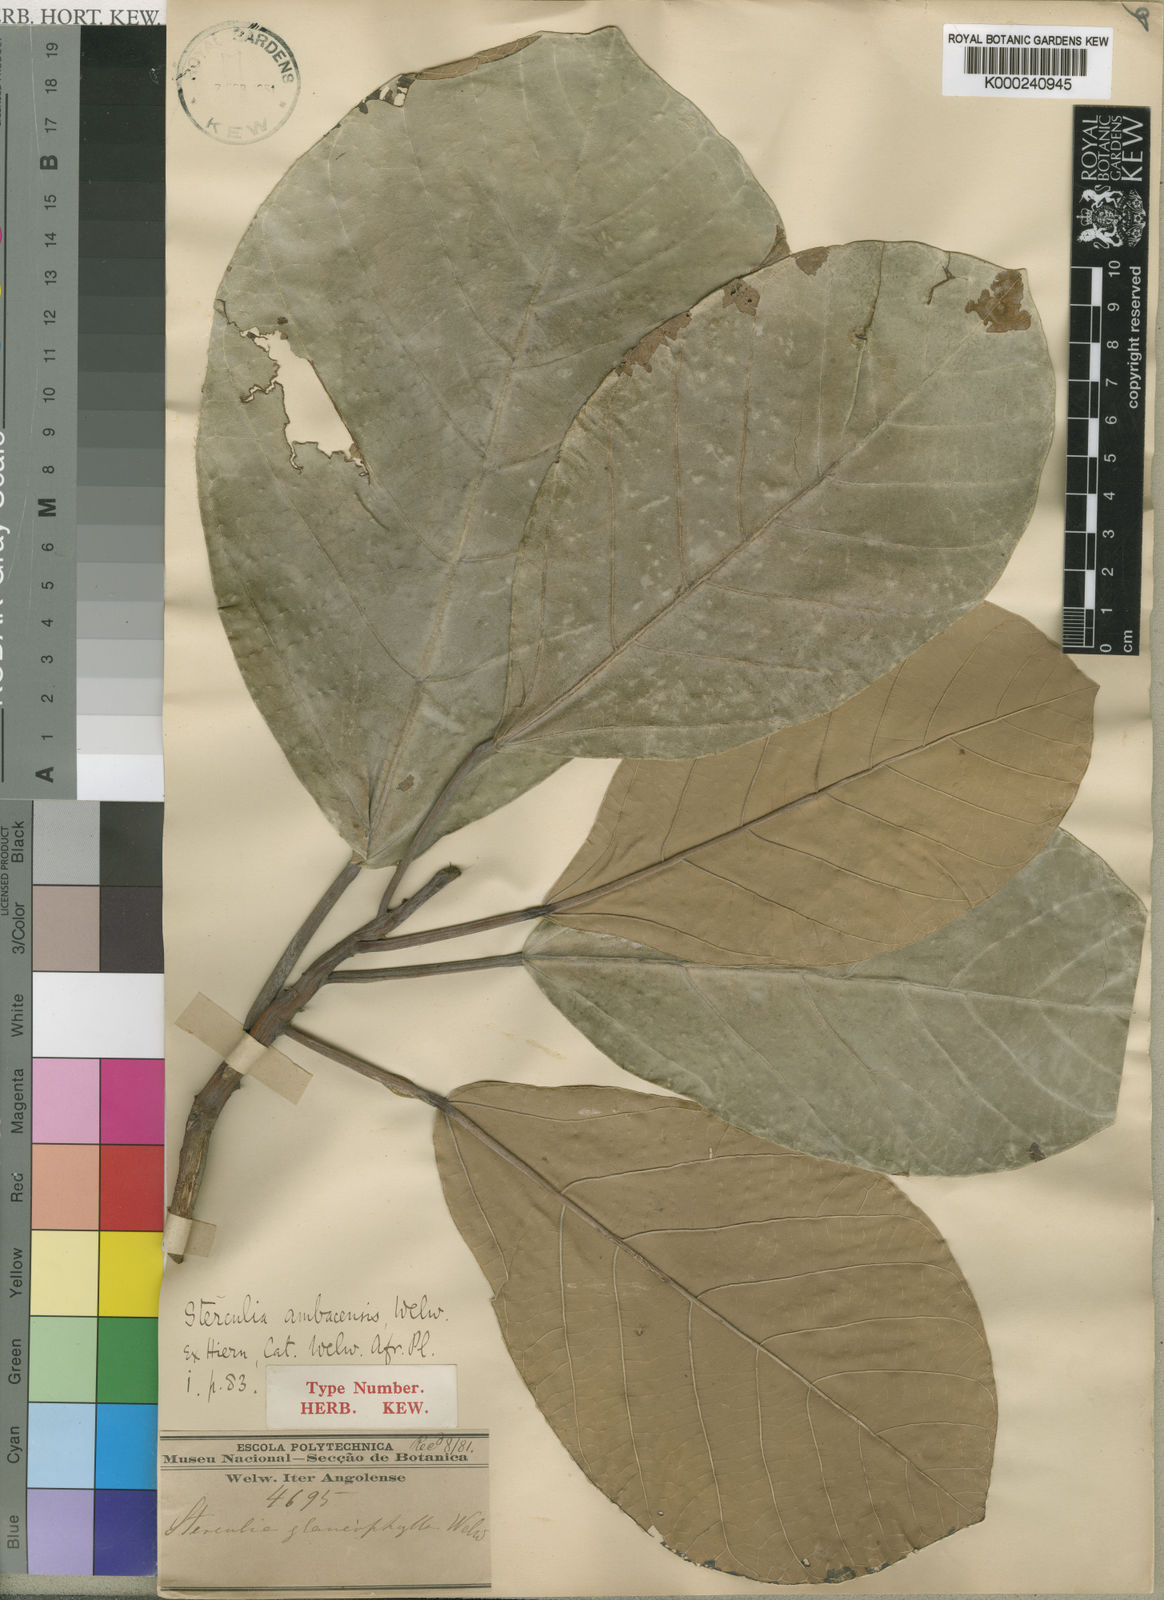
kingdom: Plantae
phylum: Tracheophyta
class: Magnoliopsida
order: Malvales
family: Malvaceae
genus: Sterculia
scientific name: Sterculia subviolacea
